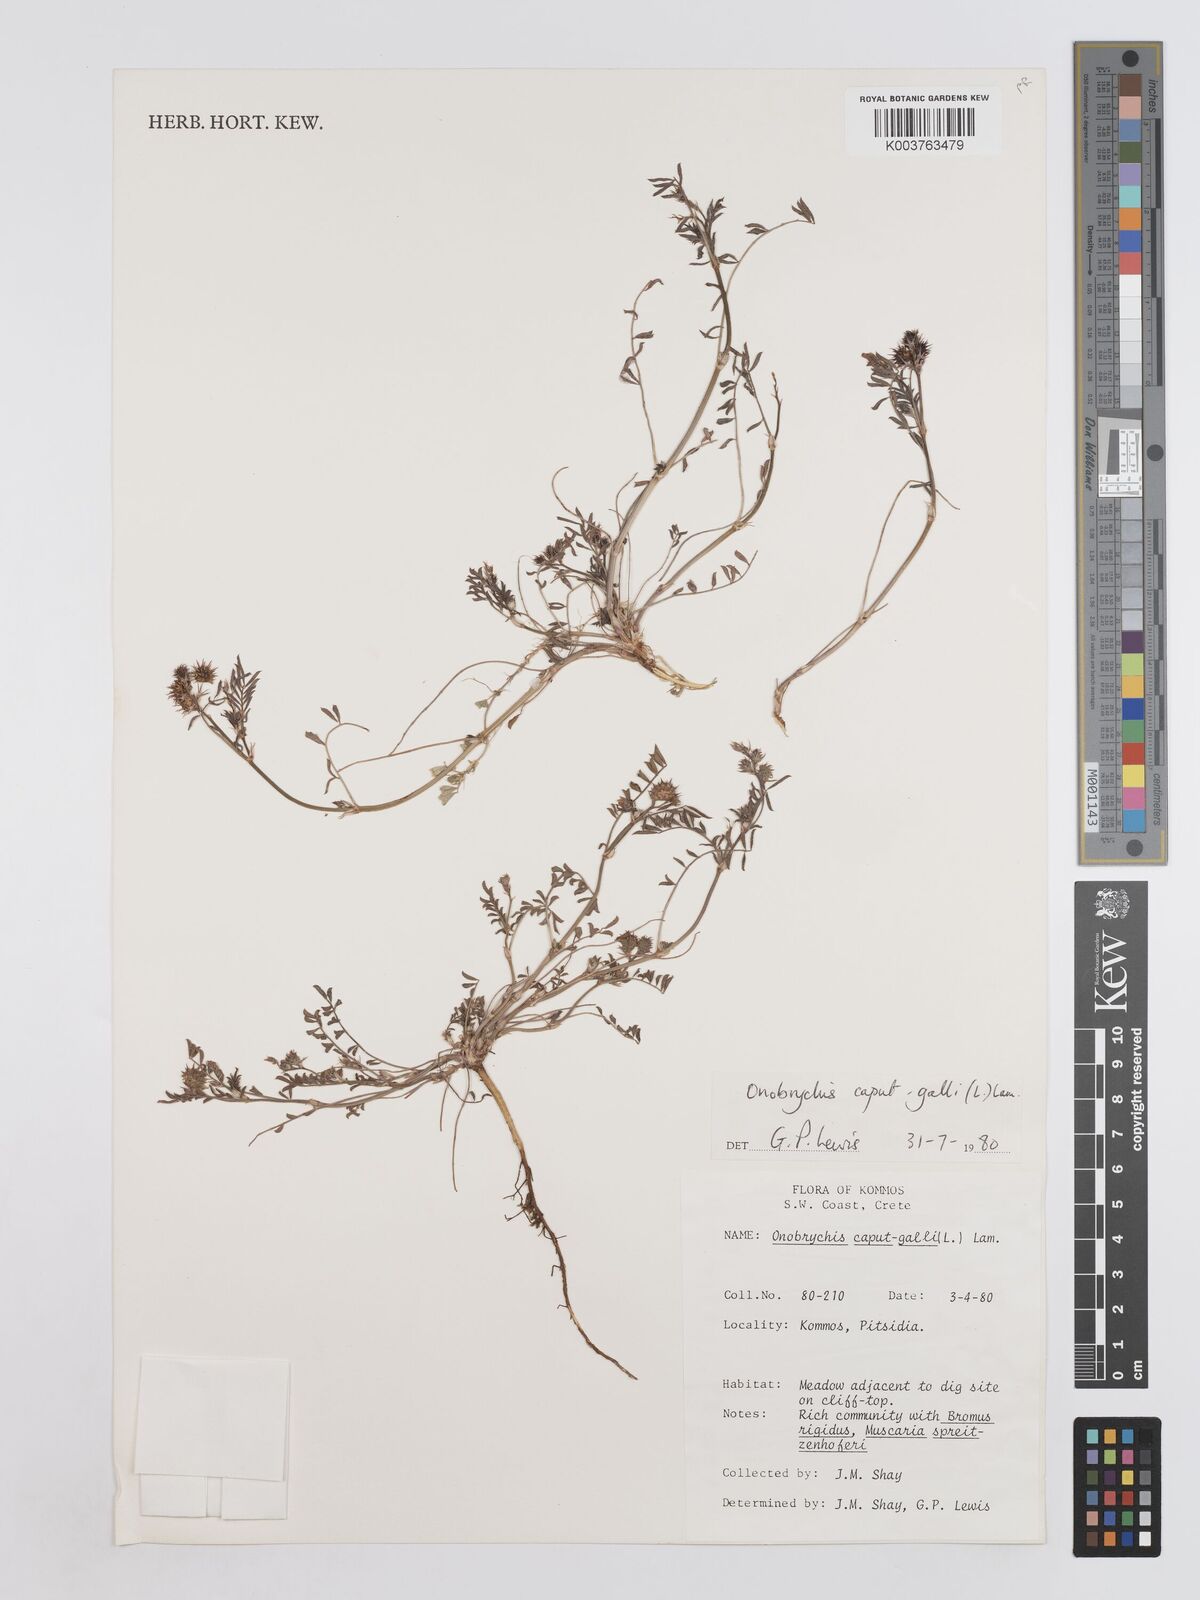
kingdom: Plantae
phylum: Tracheophyta
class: Magnoliopsida
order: Fabales
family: Fabaceae
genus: Onobrychis
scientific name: Onobrychis caput-galli
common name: Cockscomb sainfoin
